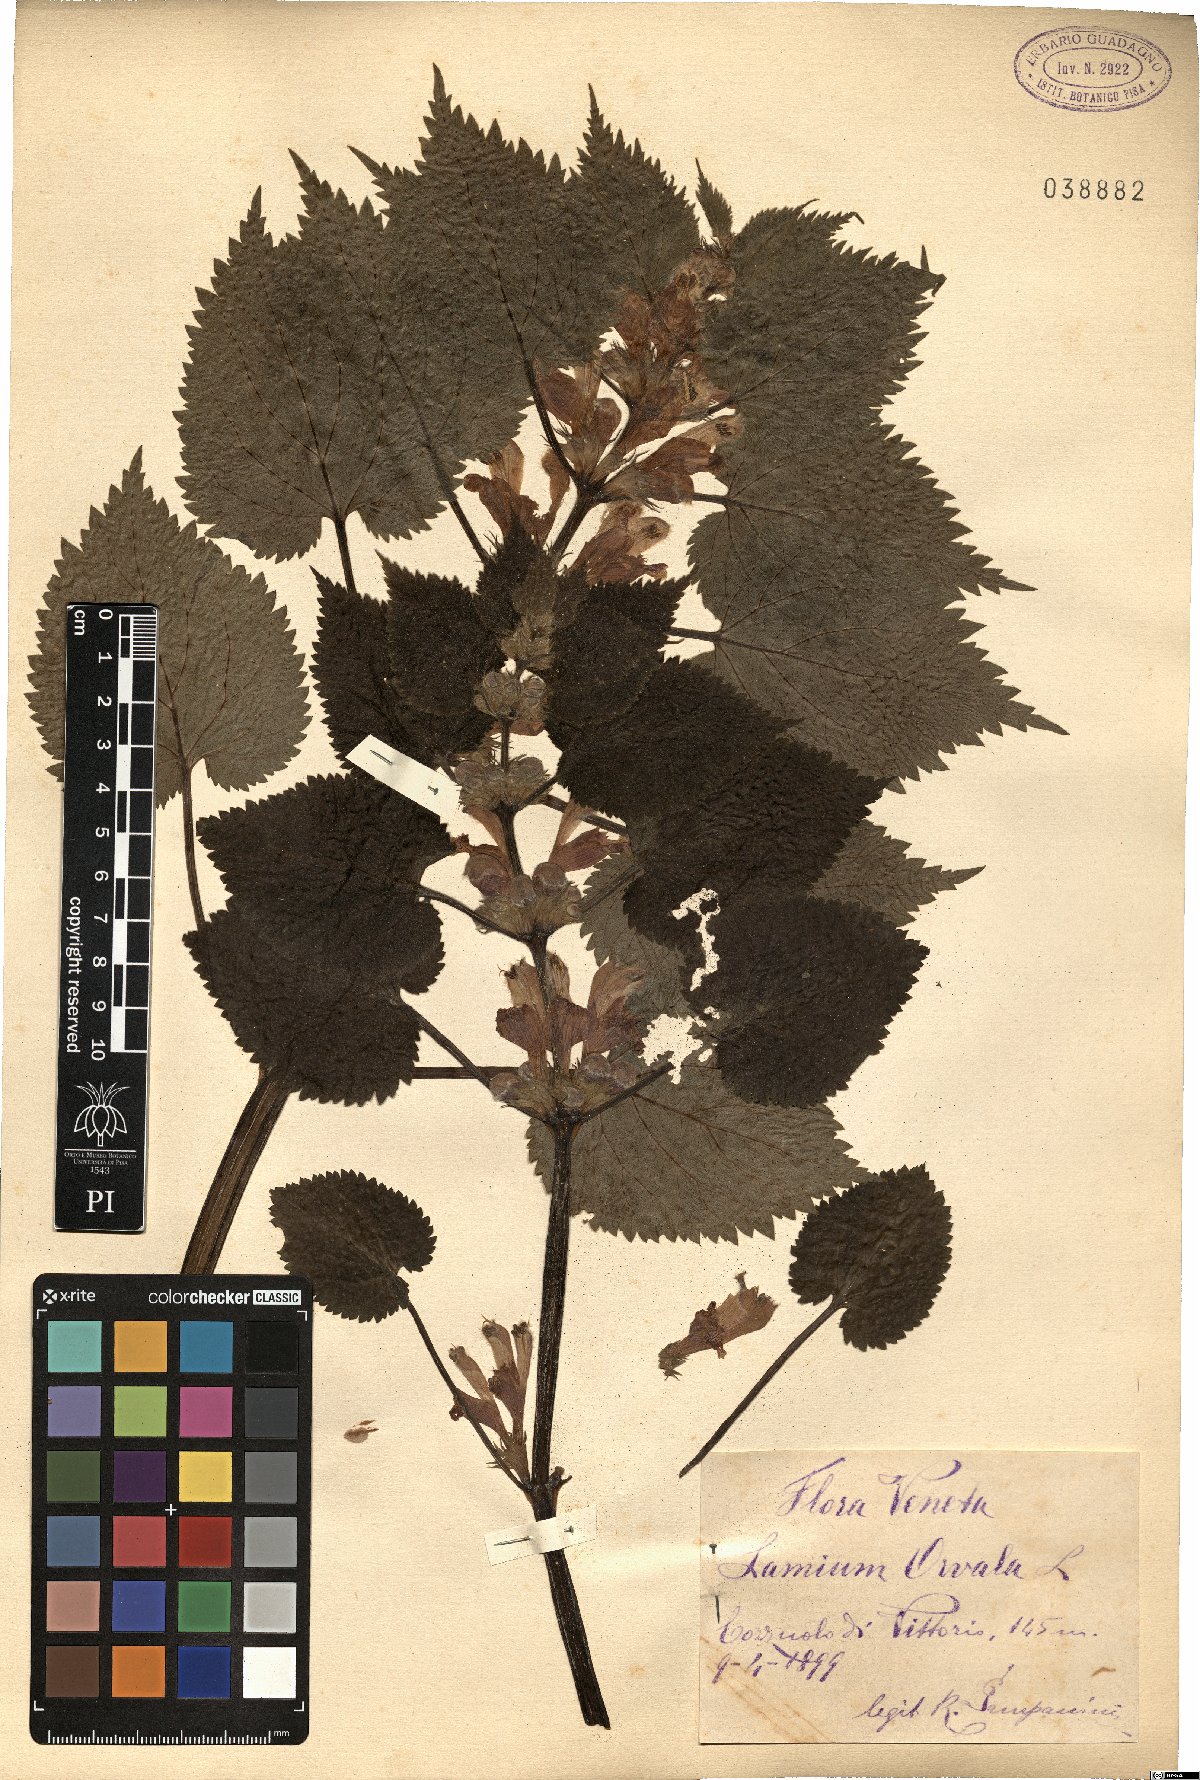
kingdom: Plantae
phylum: Tracheophyta
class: Magnoliopsida
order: Lamiales
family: Lamiaceae
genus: Lamium
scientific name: Lamium orvala
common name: Balm-leaved archangel
